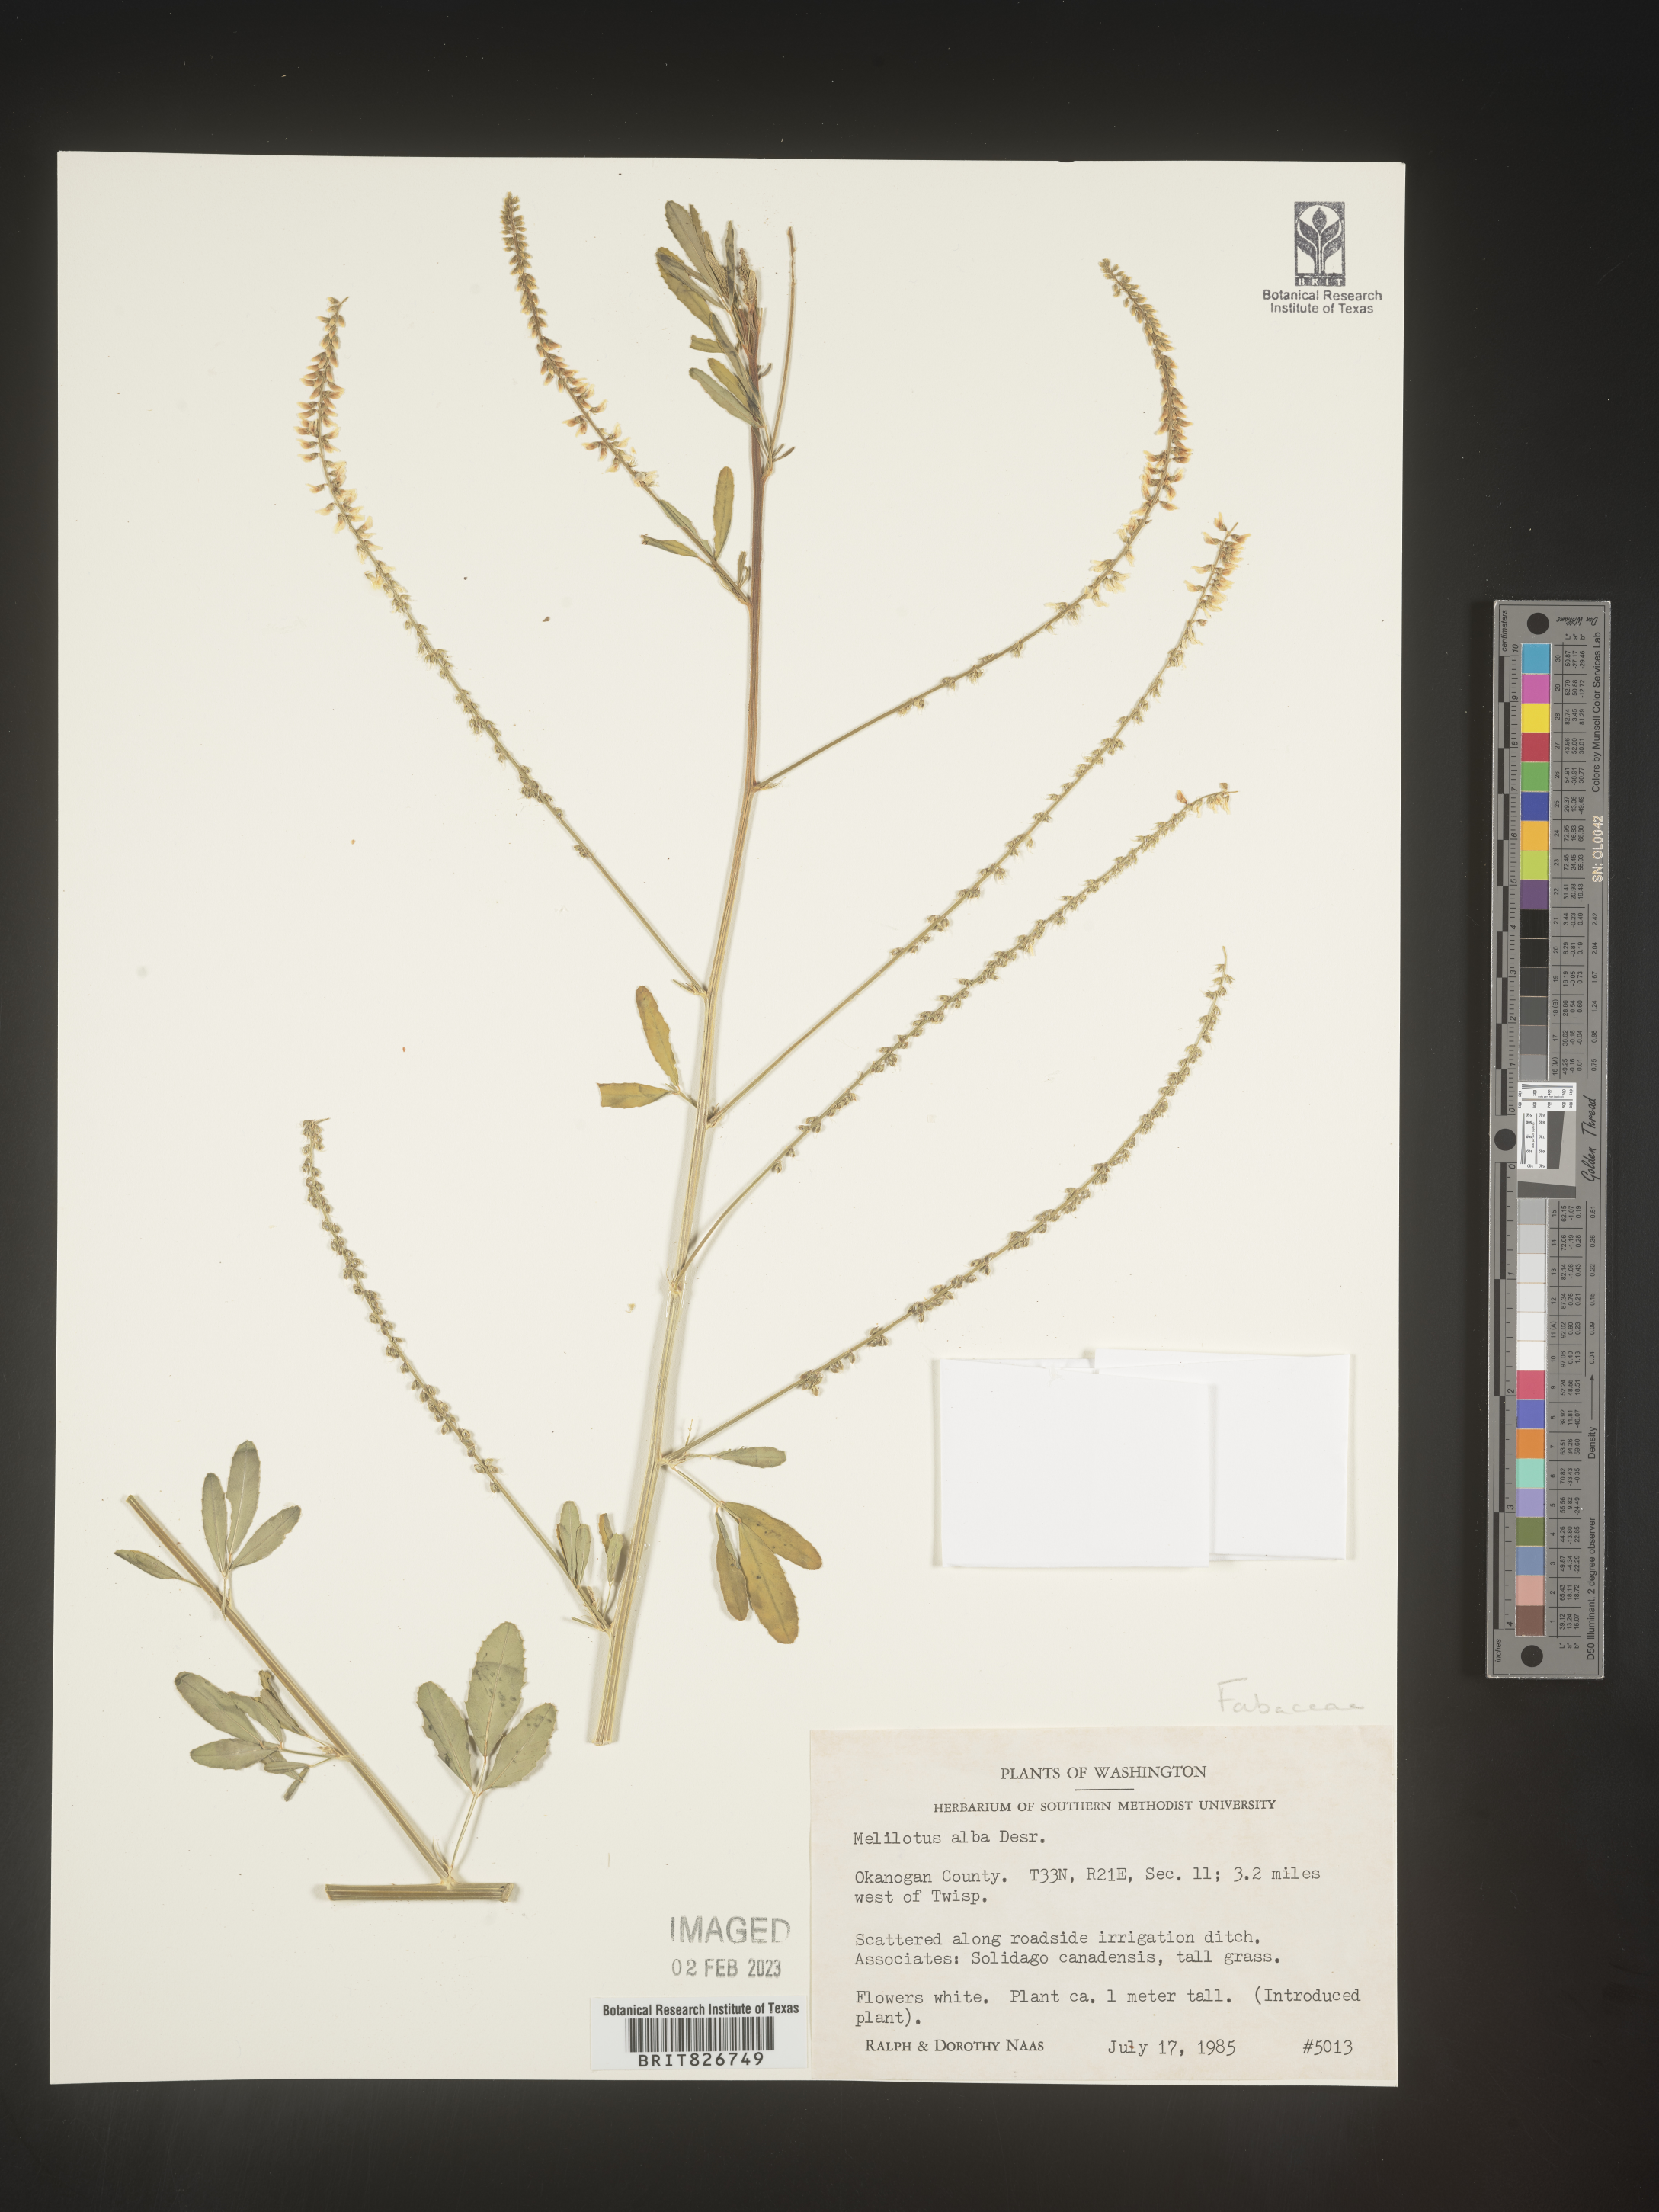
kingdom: Plantae
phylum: Tracheophyta
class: Magnoliopsida
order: Fabales
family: Fabaceae
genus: Melilotus
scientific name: Melilotus albus
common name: White melilot
